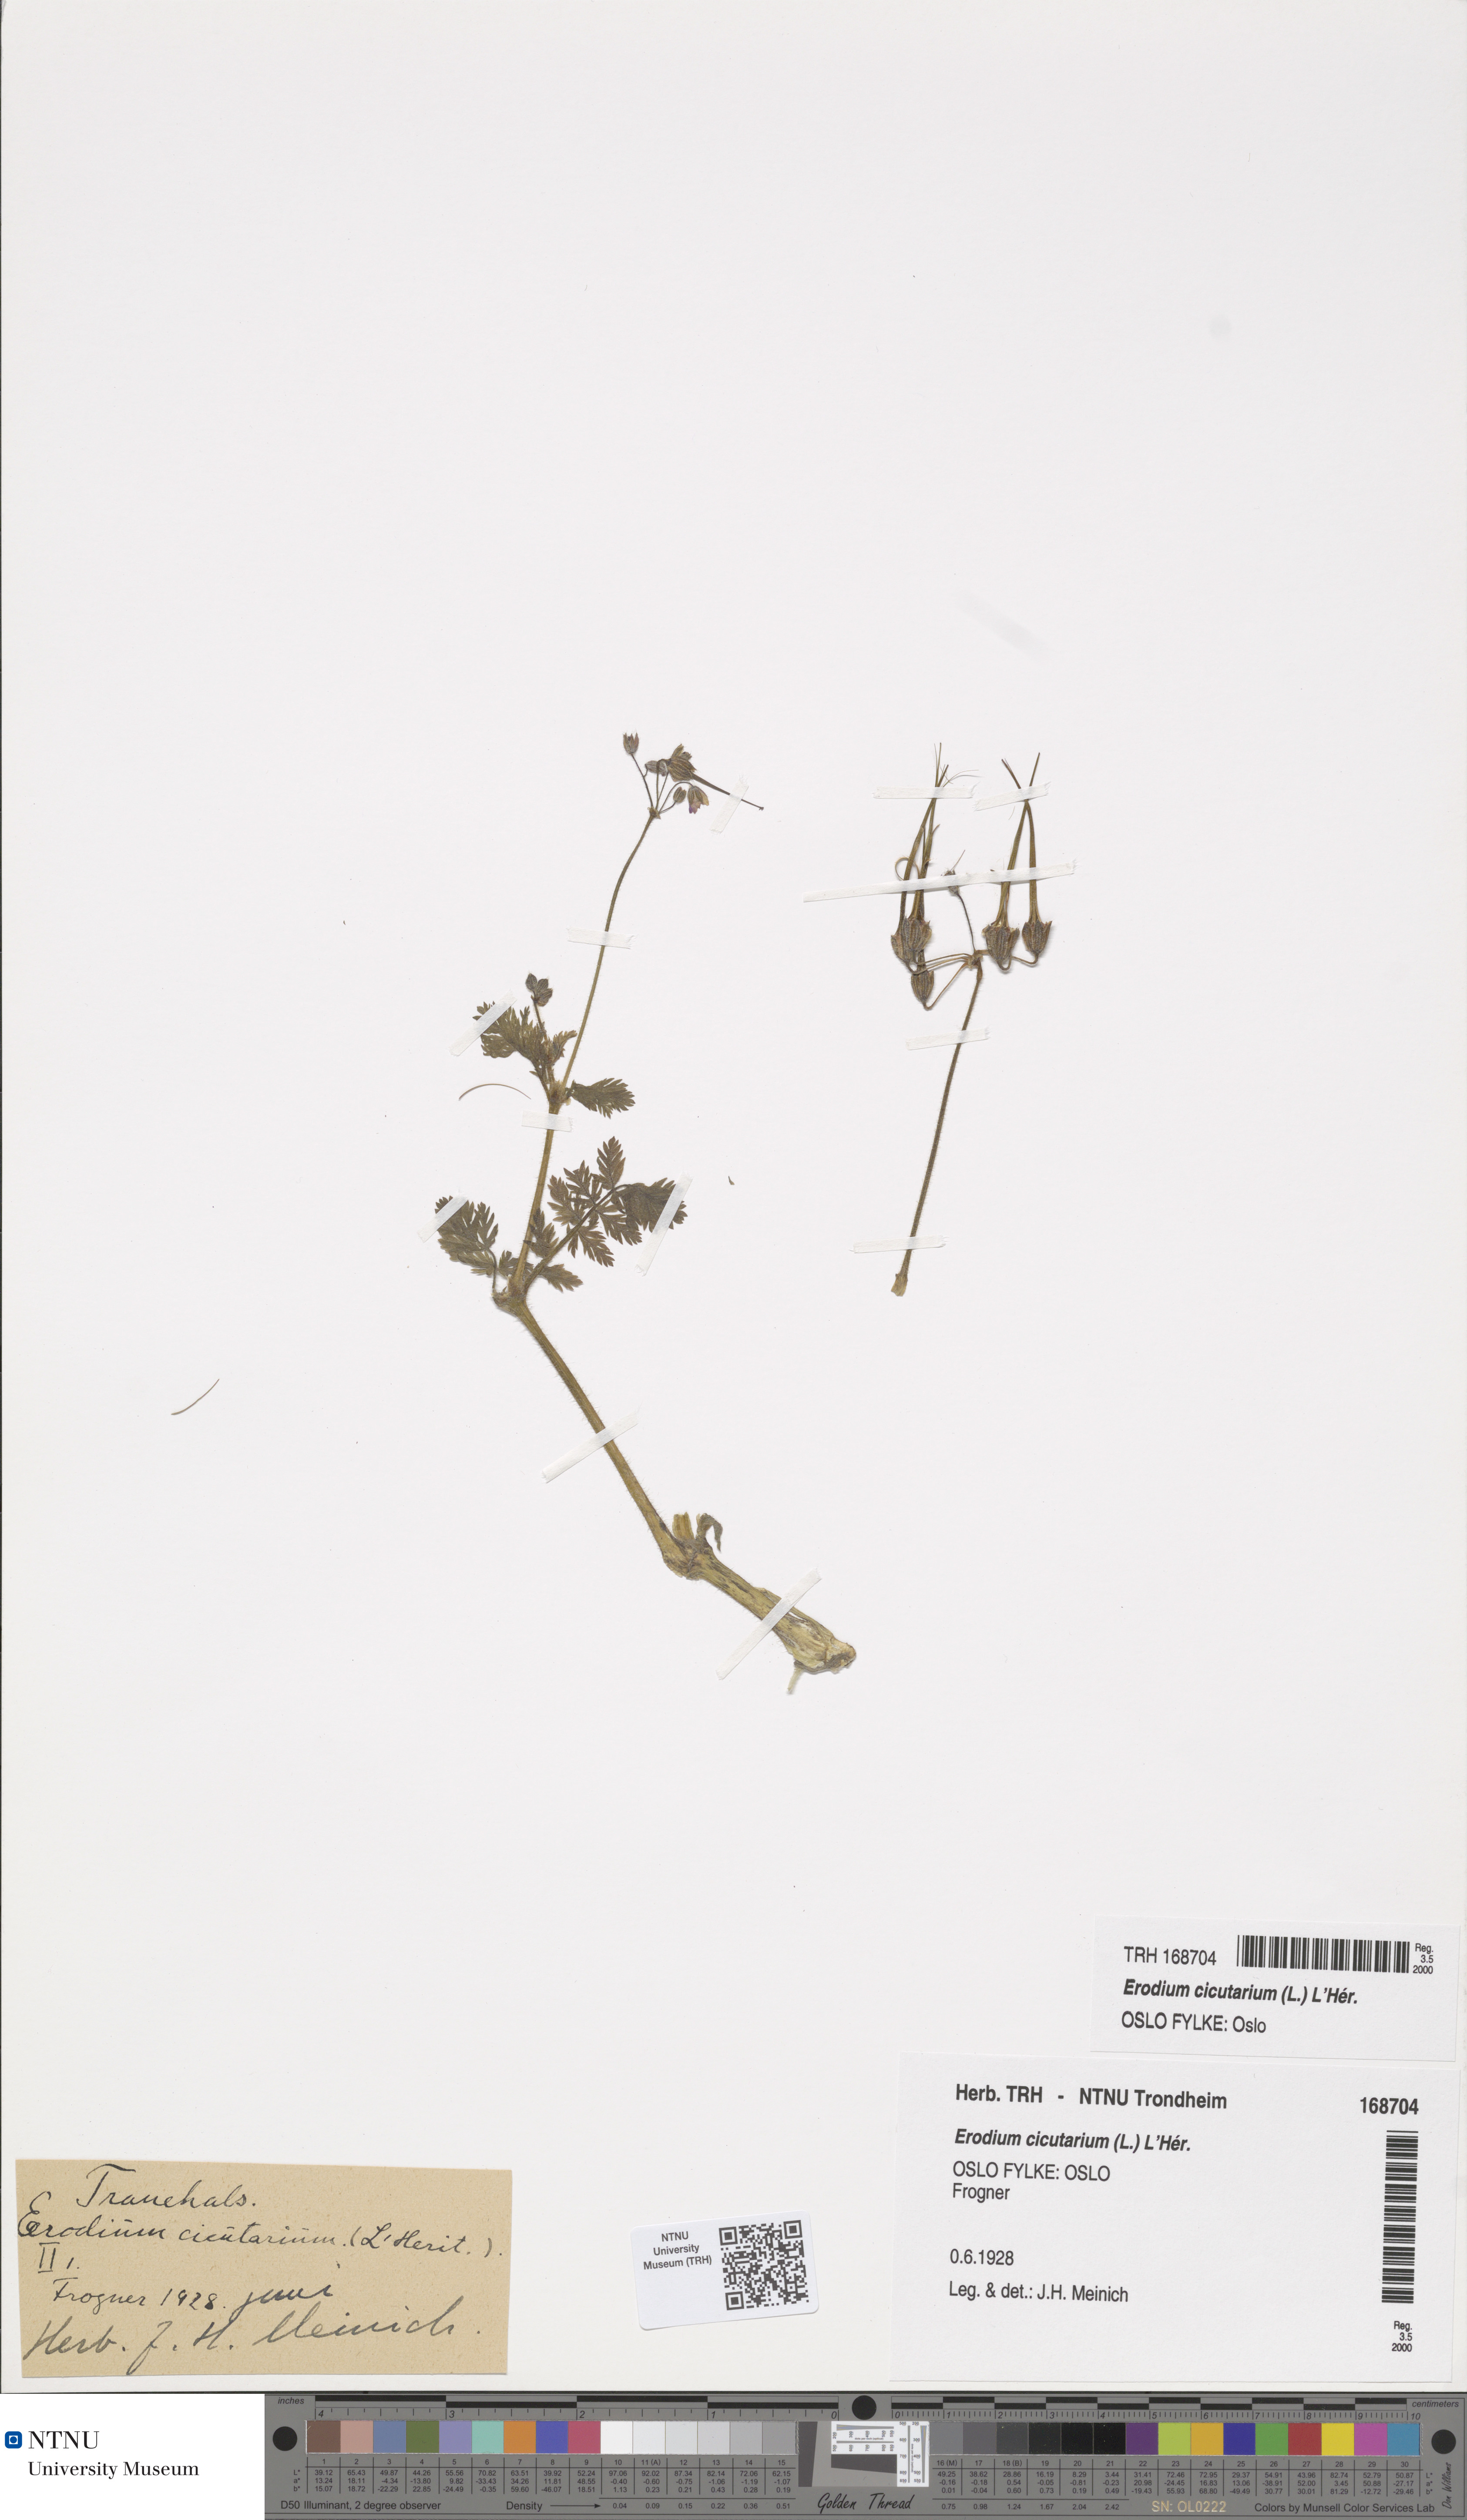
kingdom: Plantae
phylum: Tracheophyta
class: Magnoliopsida
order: Geraniales
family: Geraniaceae
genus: Erodium
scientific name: Erodium cicutarium
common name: Common stork's-bill
